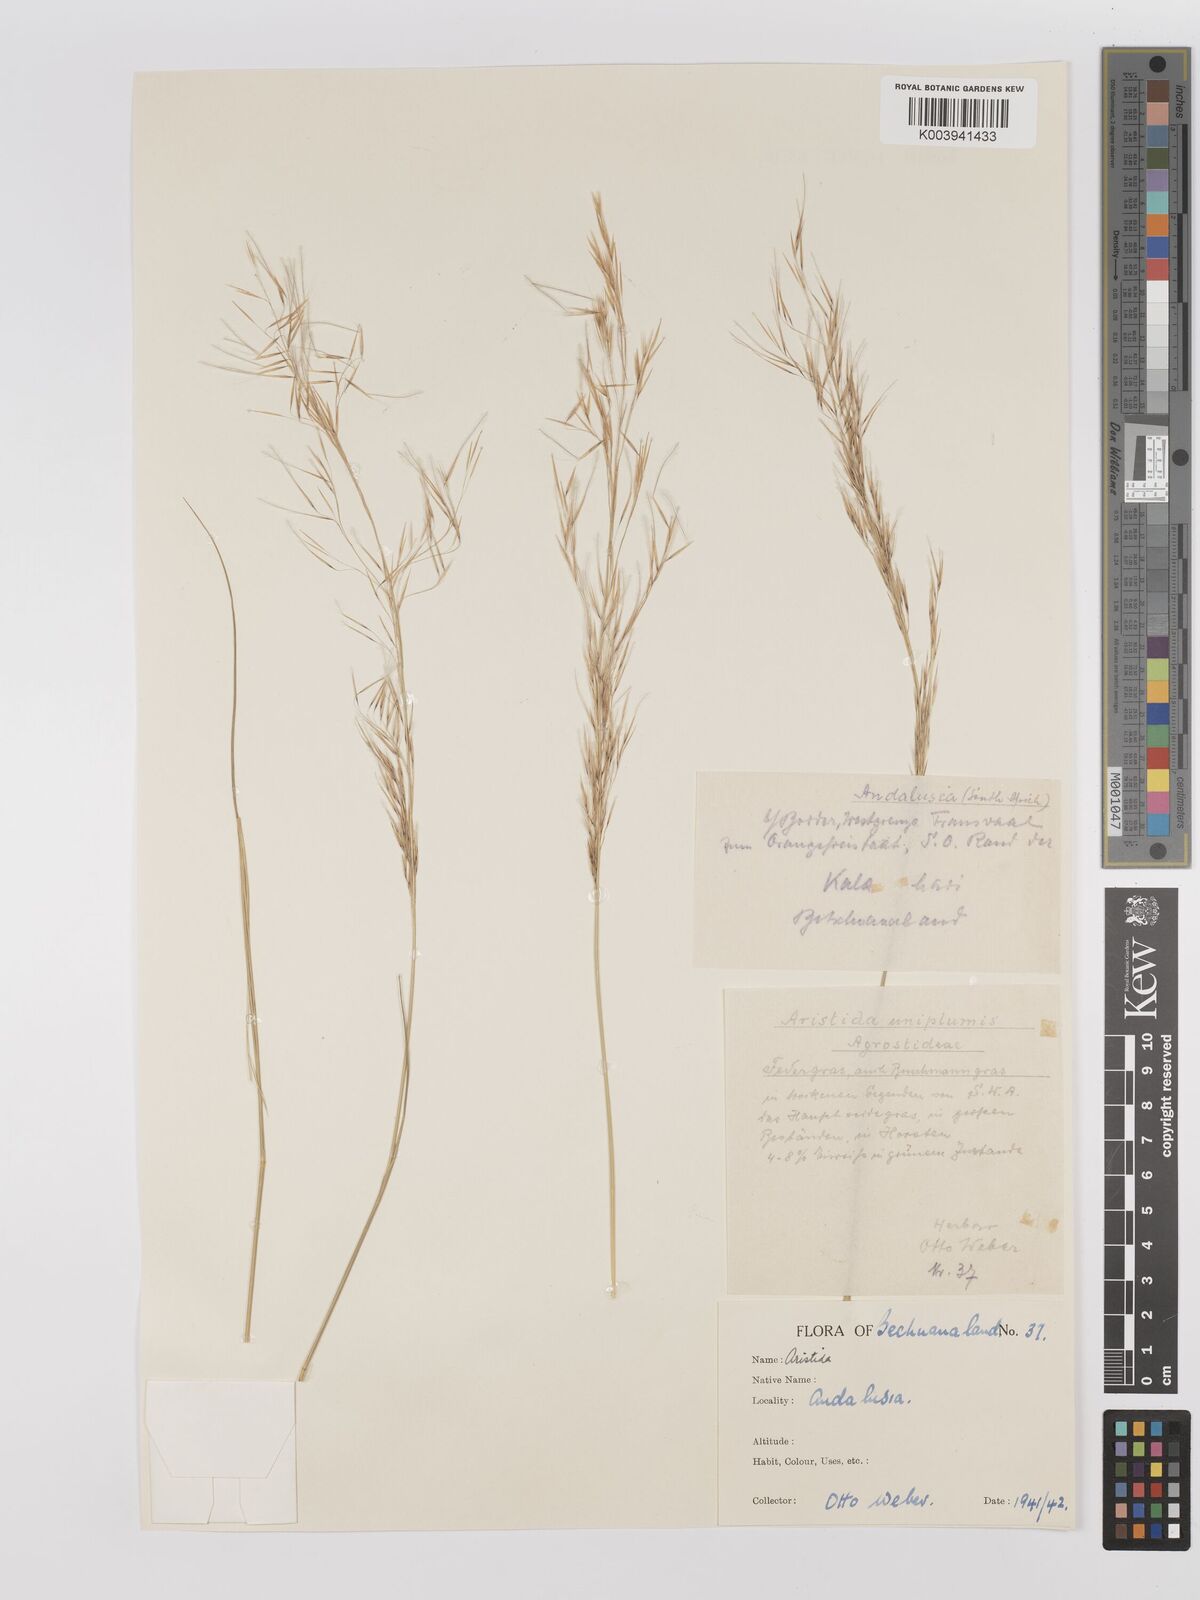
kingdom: Plantae
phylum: Tracheophyta
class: Liliopsida
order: Poales
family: Poaceae
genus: Stipagrostis
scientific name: Stipagrostis uniplumis
